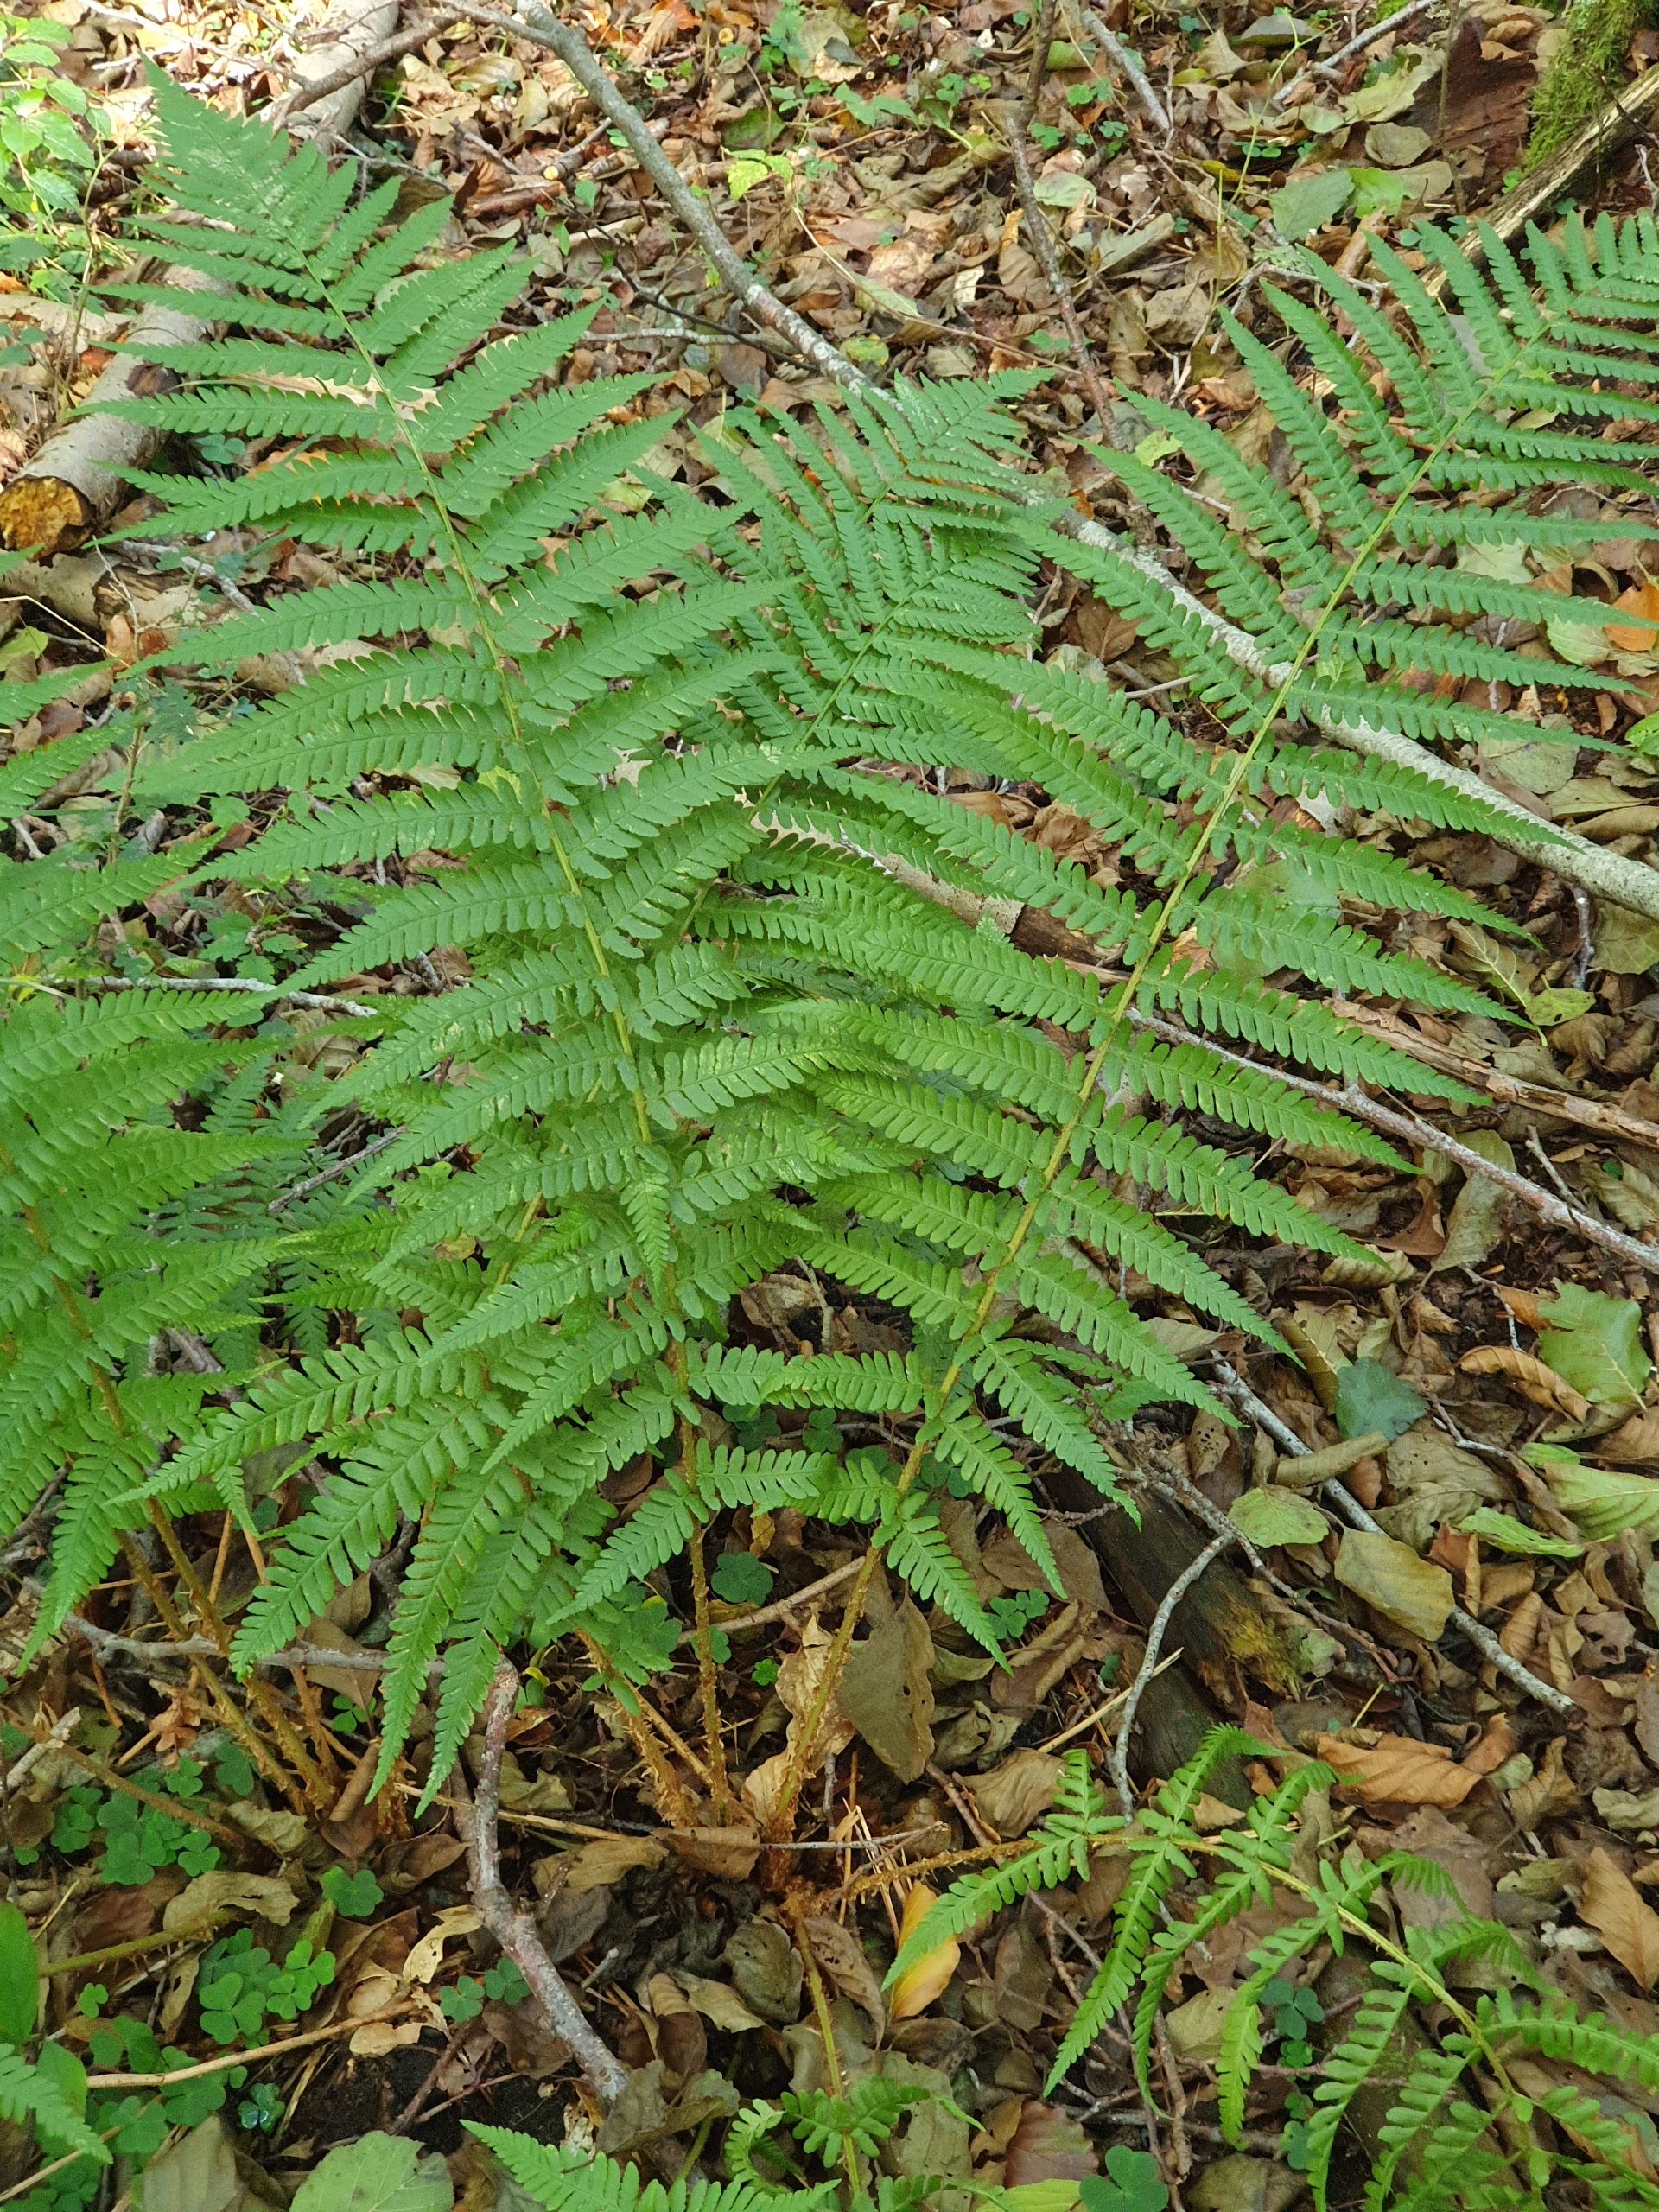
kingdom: Plantae
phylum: Tracheophyta
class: Polypodiopsida
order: Polypodiales
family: Dryopteridaceae
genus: Dryopteris
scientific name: Dryopteris filix-mas
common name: Almindelig mangeløv
